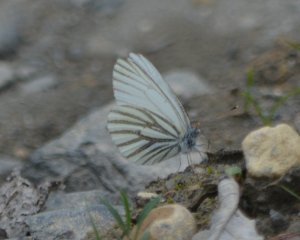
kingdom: Animalia
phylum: Arthropoda
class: Insecta
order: Lepidoptera
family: Pieridae
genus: Pieris
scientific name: Pieris oleracea
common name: Mustard White
